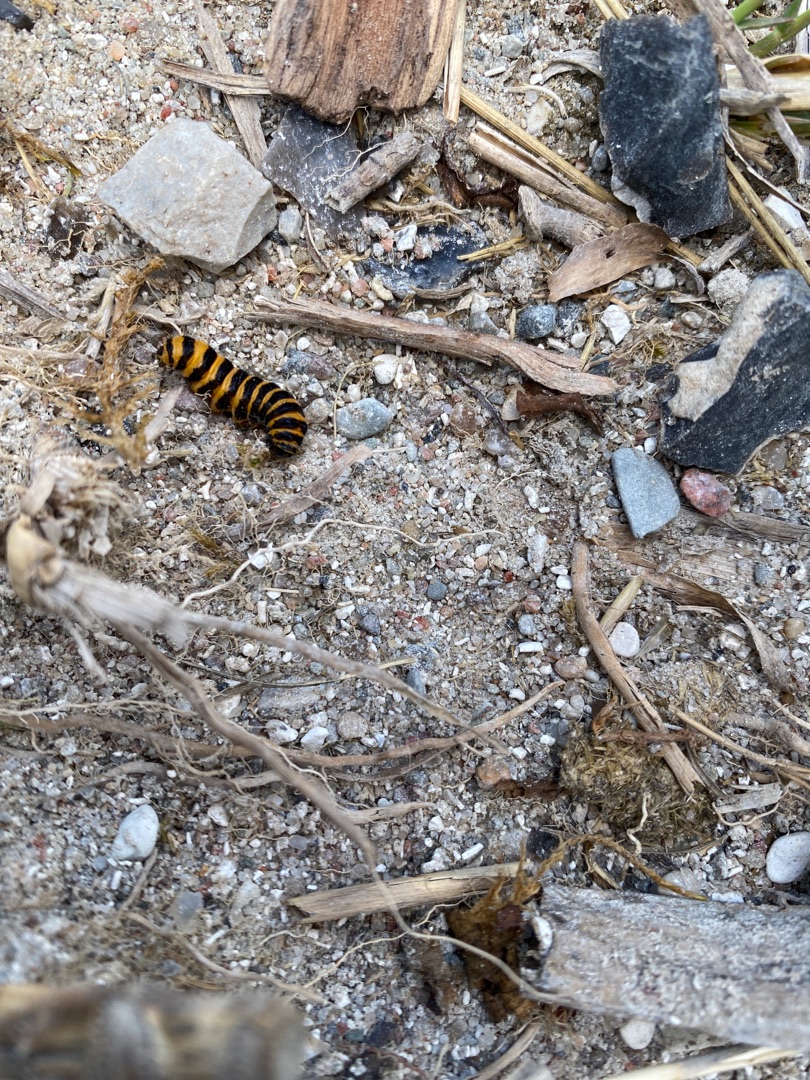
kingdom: Animalia
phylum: Arthropoda
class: Insecta
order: Lepidoptera
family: Erebidae
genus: Tyria
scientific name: Tyria jacobaeae
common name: Blodplet
